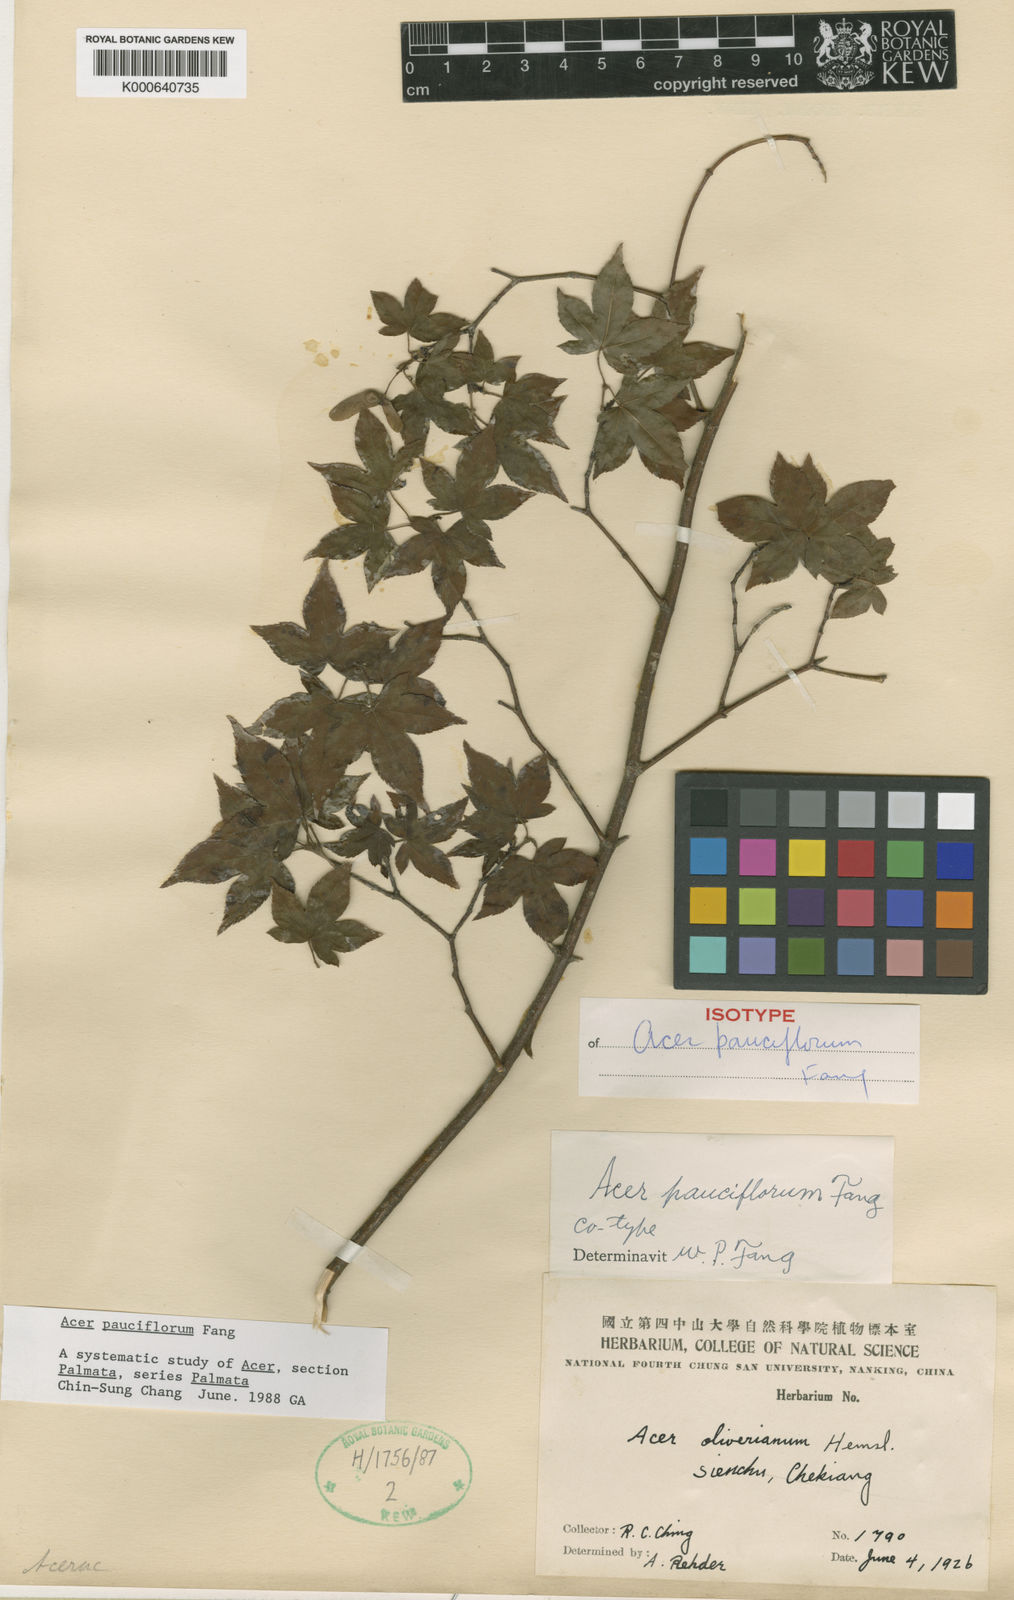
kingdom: Plantae
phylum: Tracheophyta
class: Magnoliopsida
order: Sapindales
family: Sapindaceae
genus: Acer
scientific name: Acer pauciflorum
